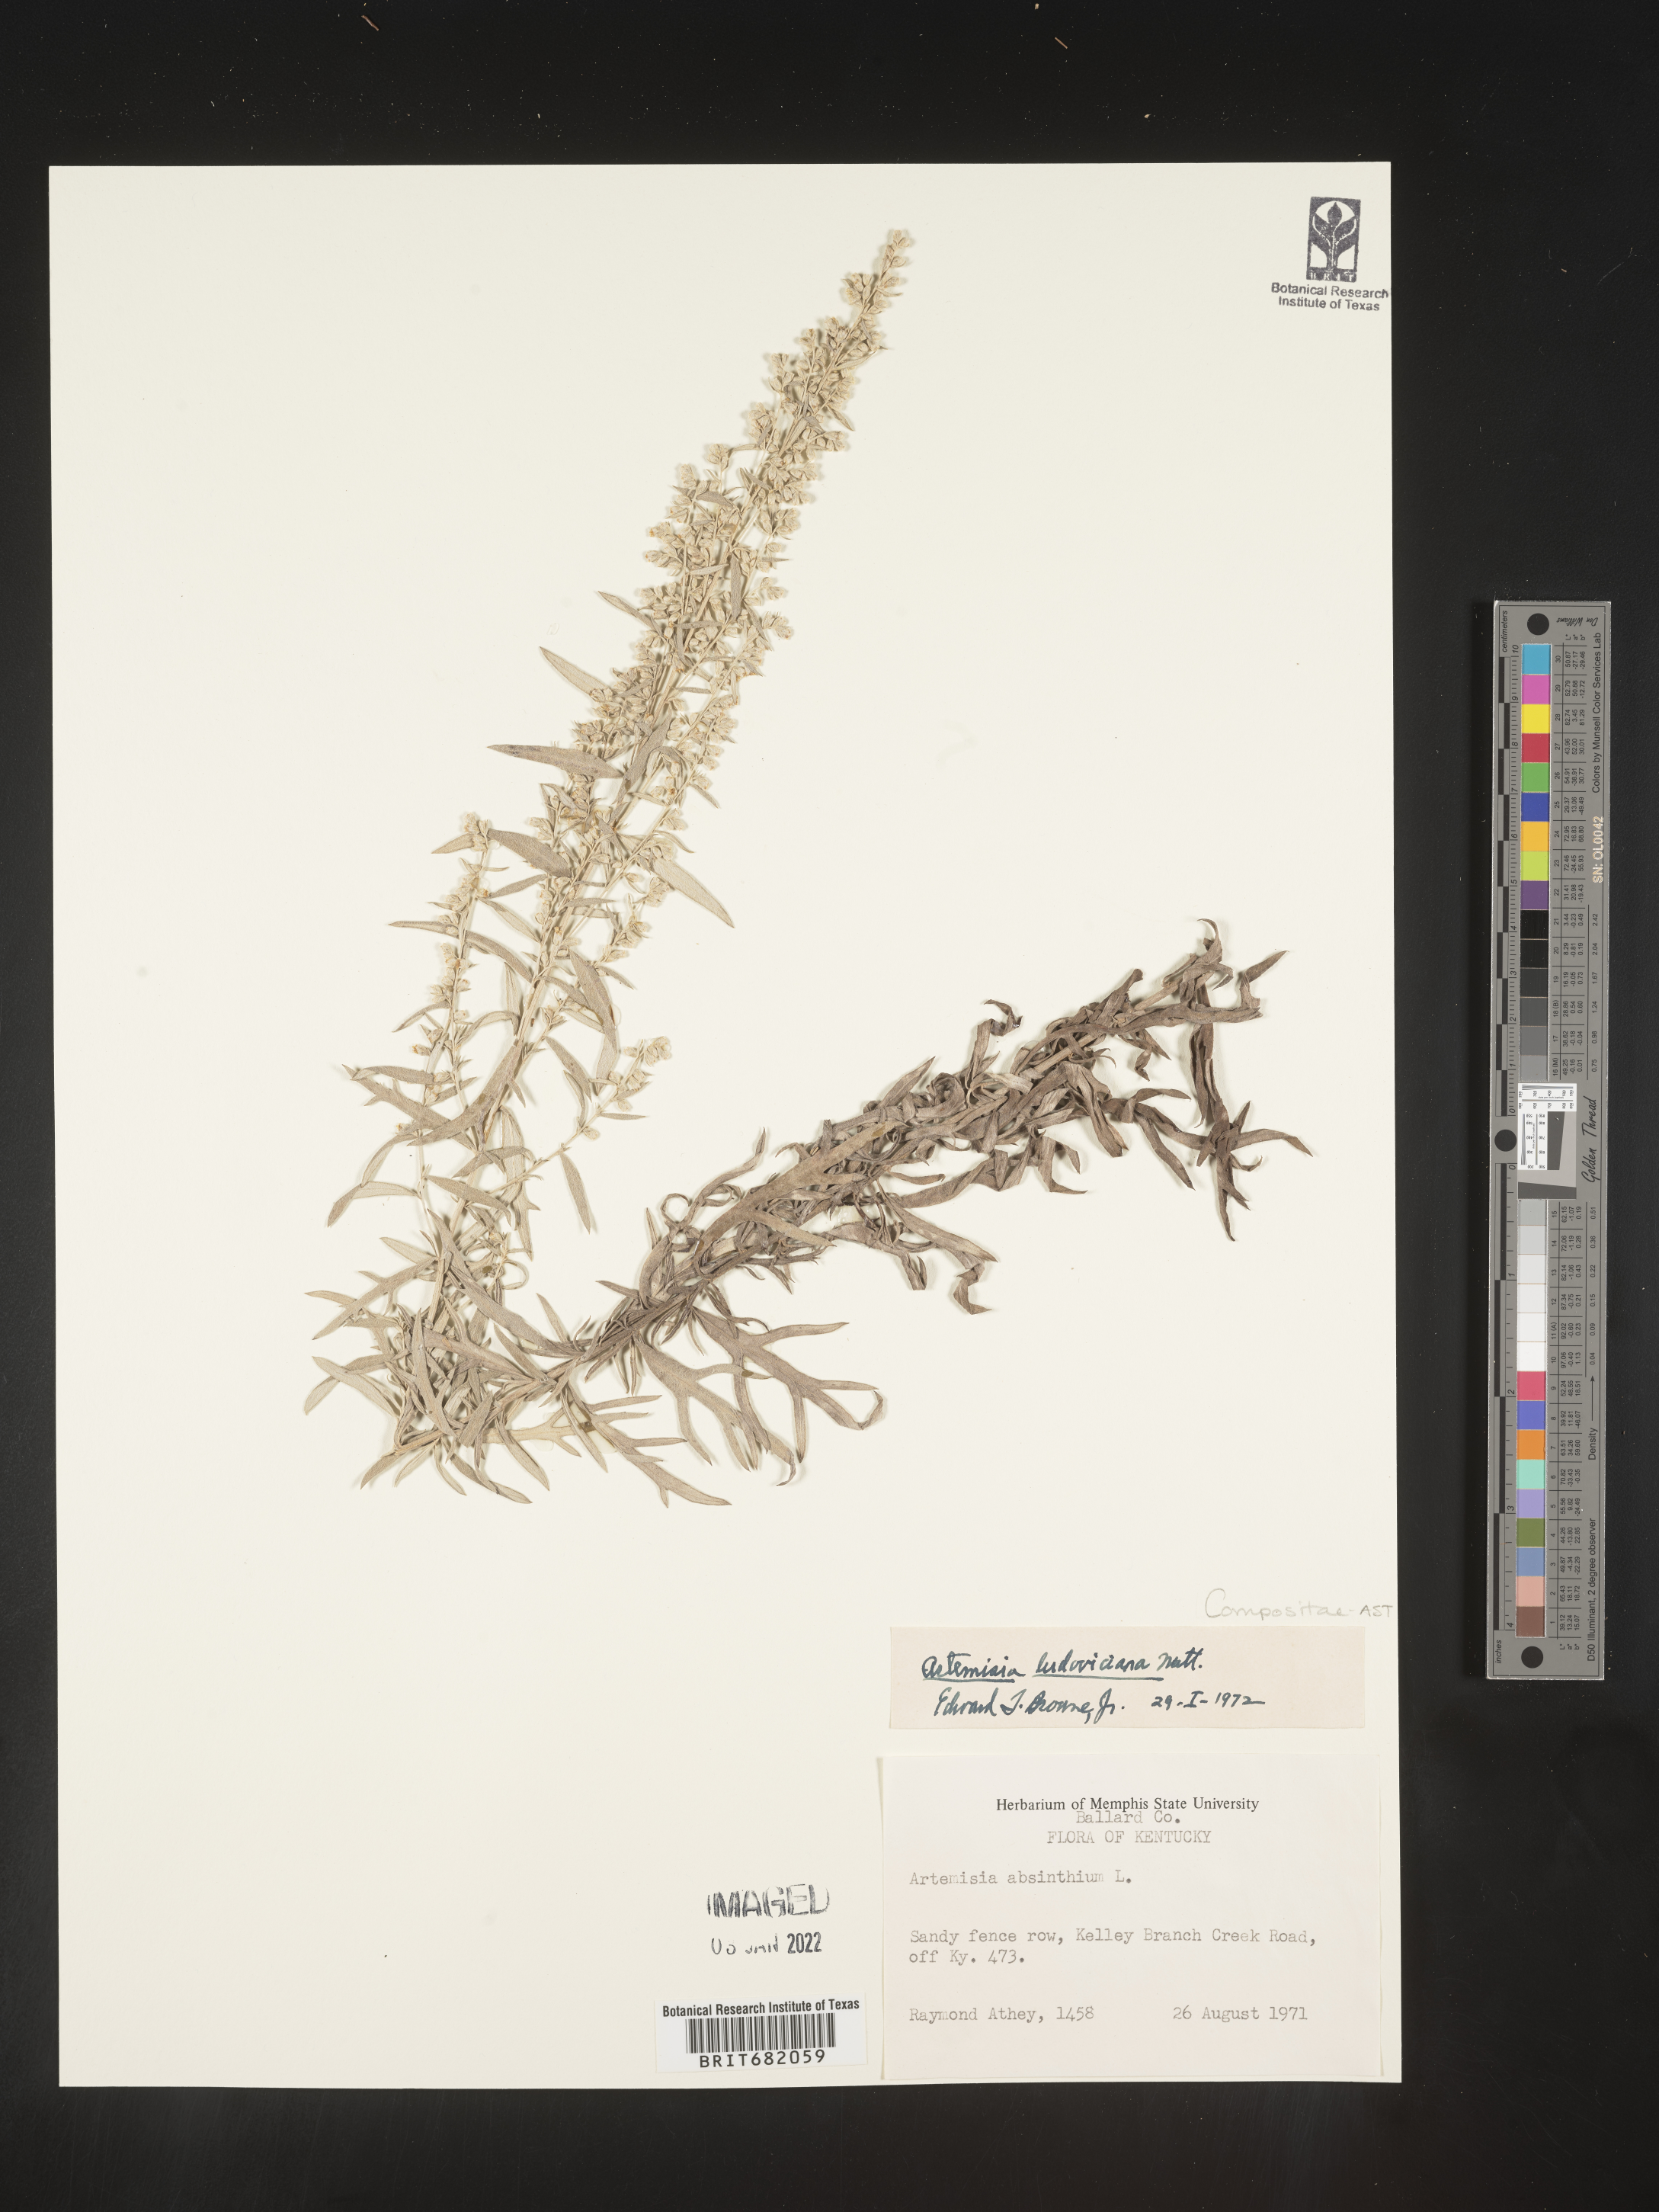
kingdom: Plantae
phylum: Tracheophyta
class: Magnoliopsida
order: Asterales
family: Asteraceae
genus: Artemisia
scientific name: Artemisia ludoviciana
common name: Western mugwort
